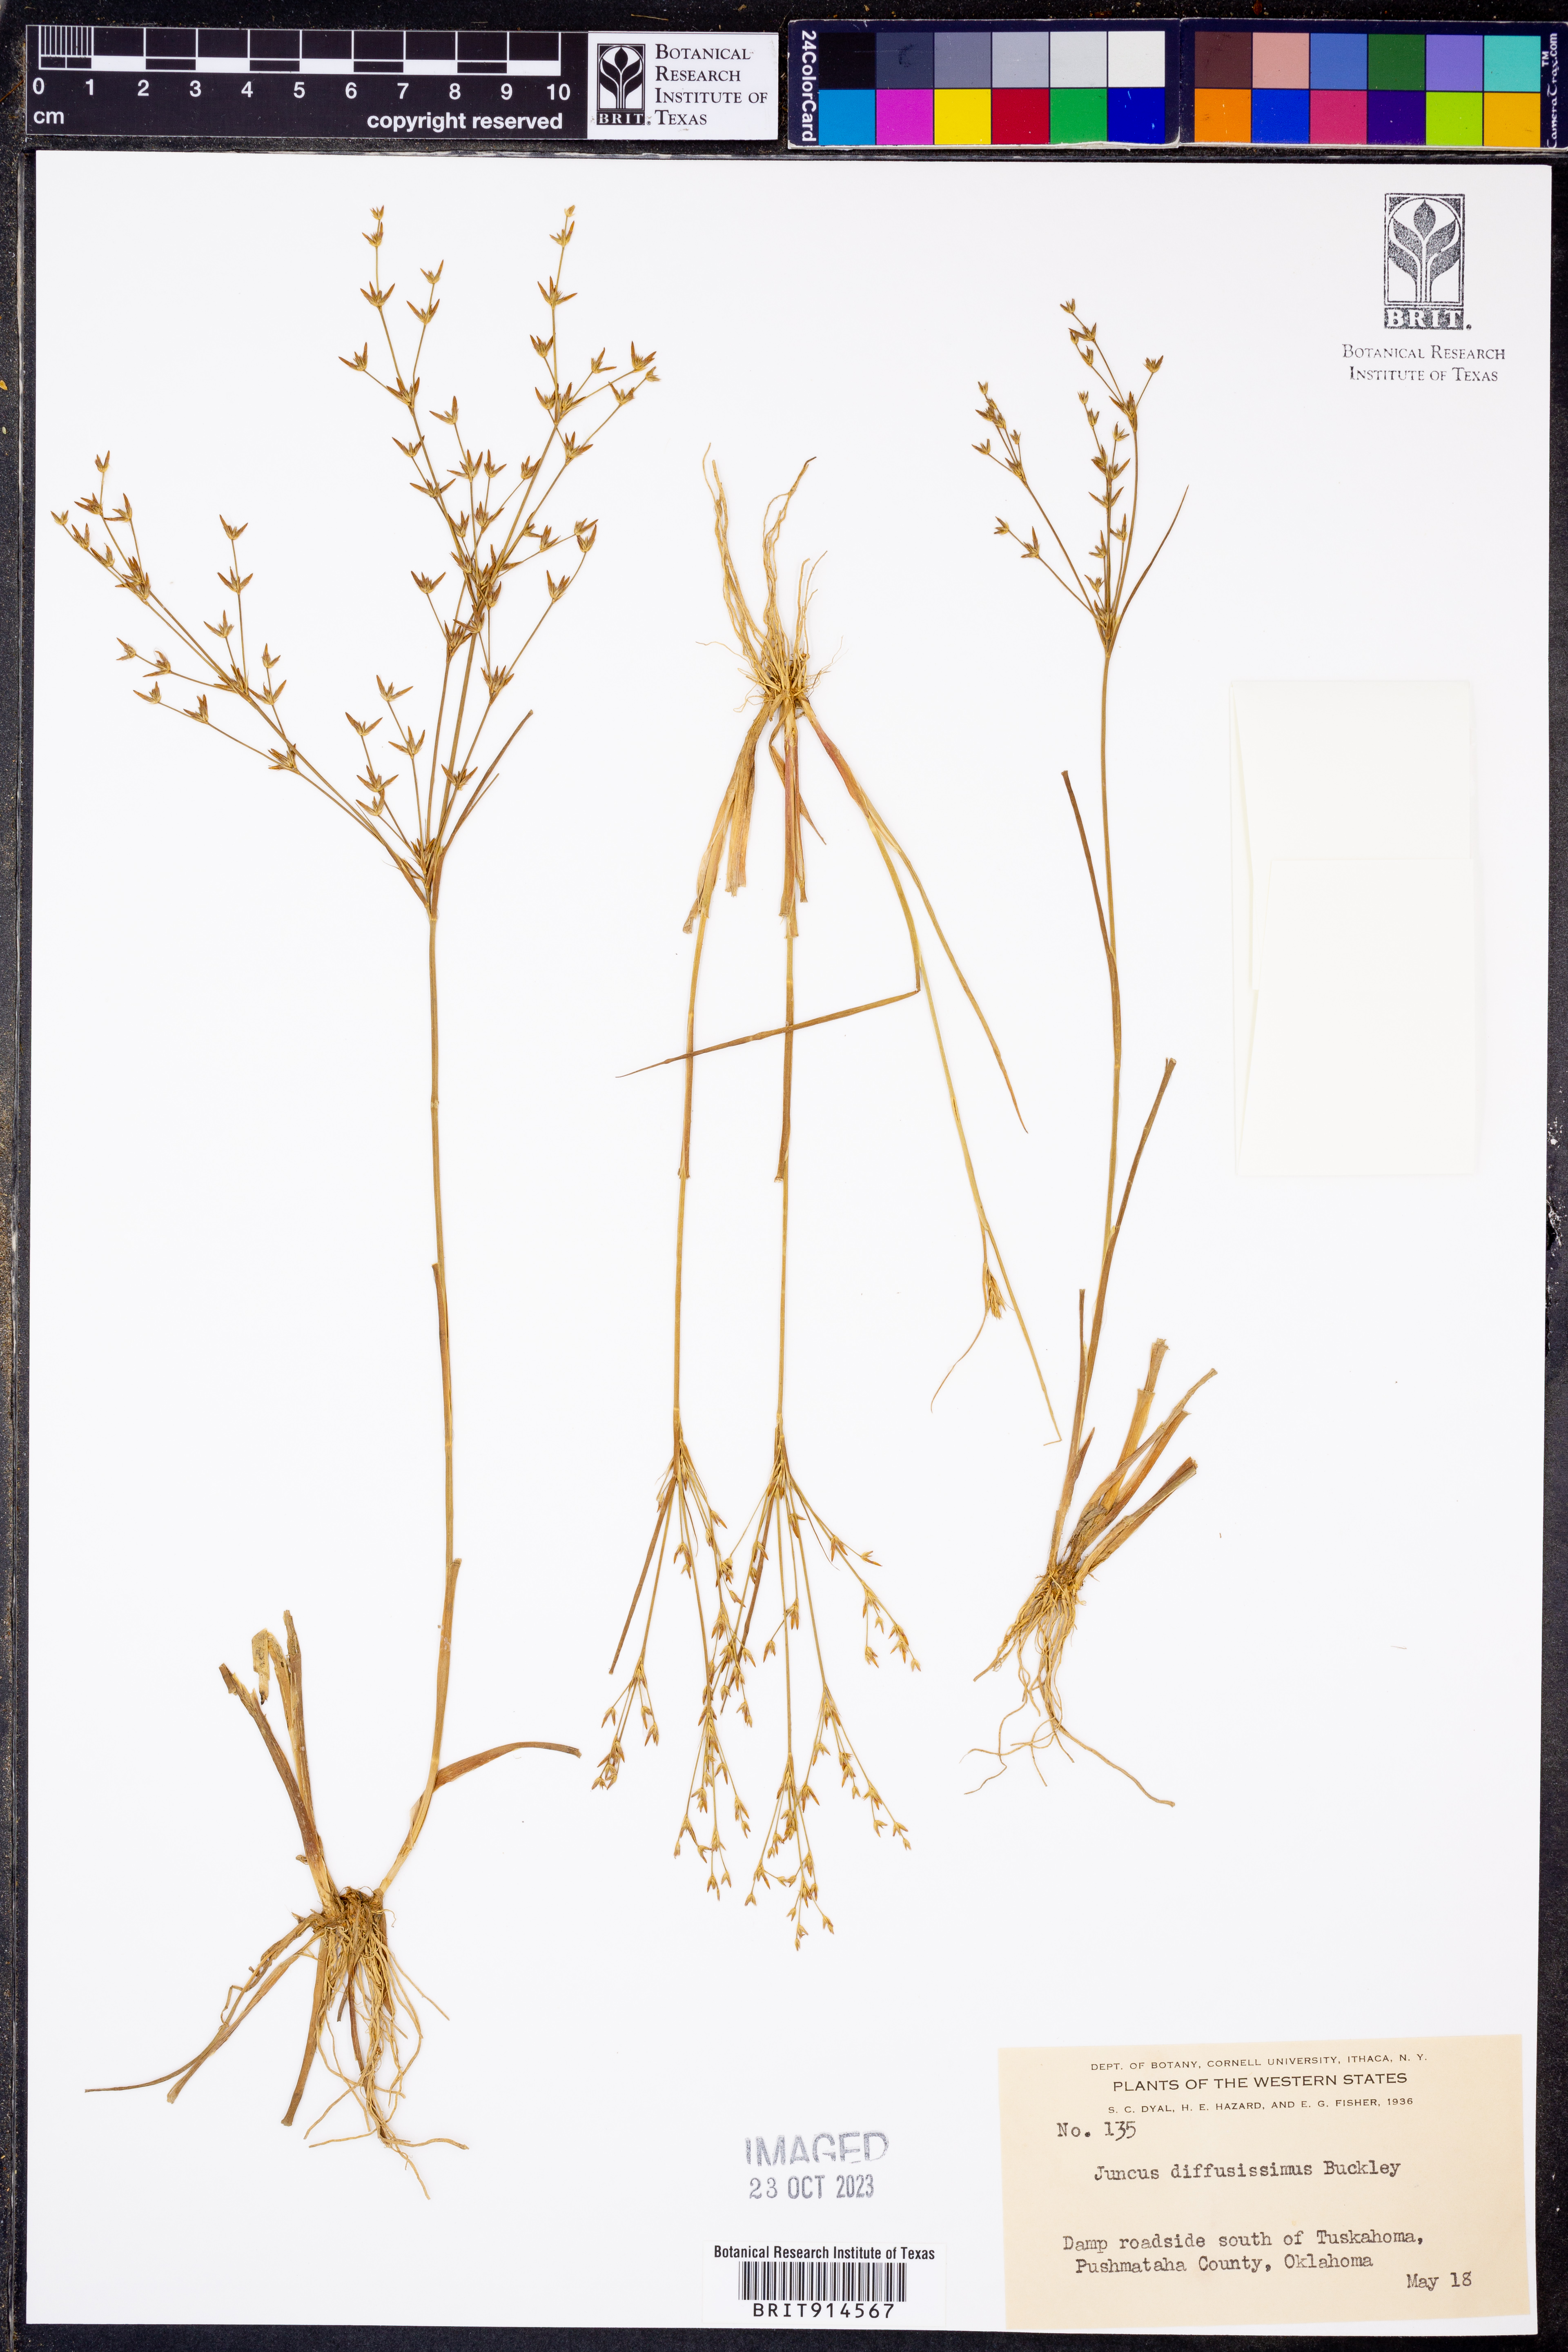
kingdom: Plantae
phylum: Tracheophyta
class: Liliopsida
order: Poales
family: Juncaceae
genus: Juncus
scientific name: Juncus diffusissimus
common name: Slimpod rush
